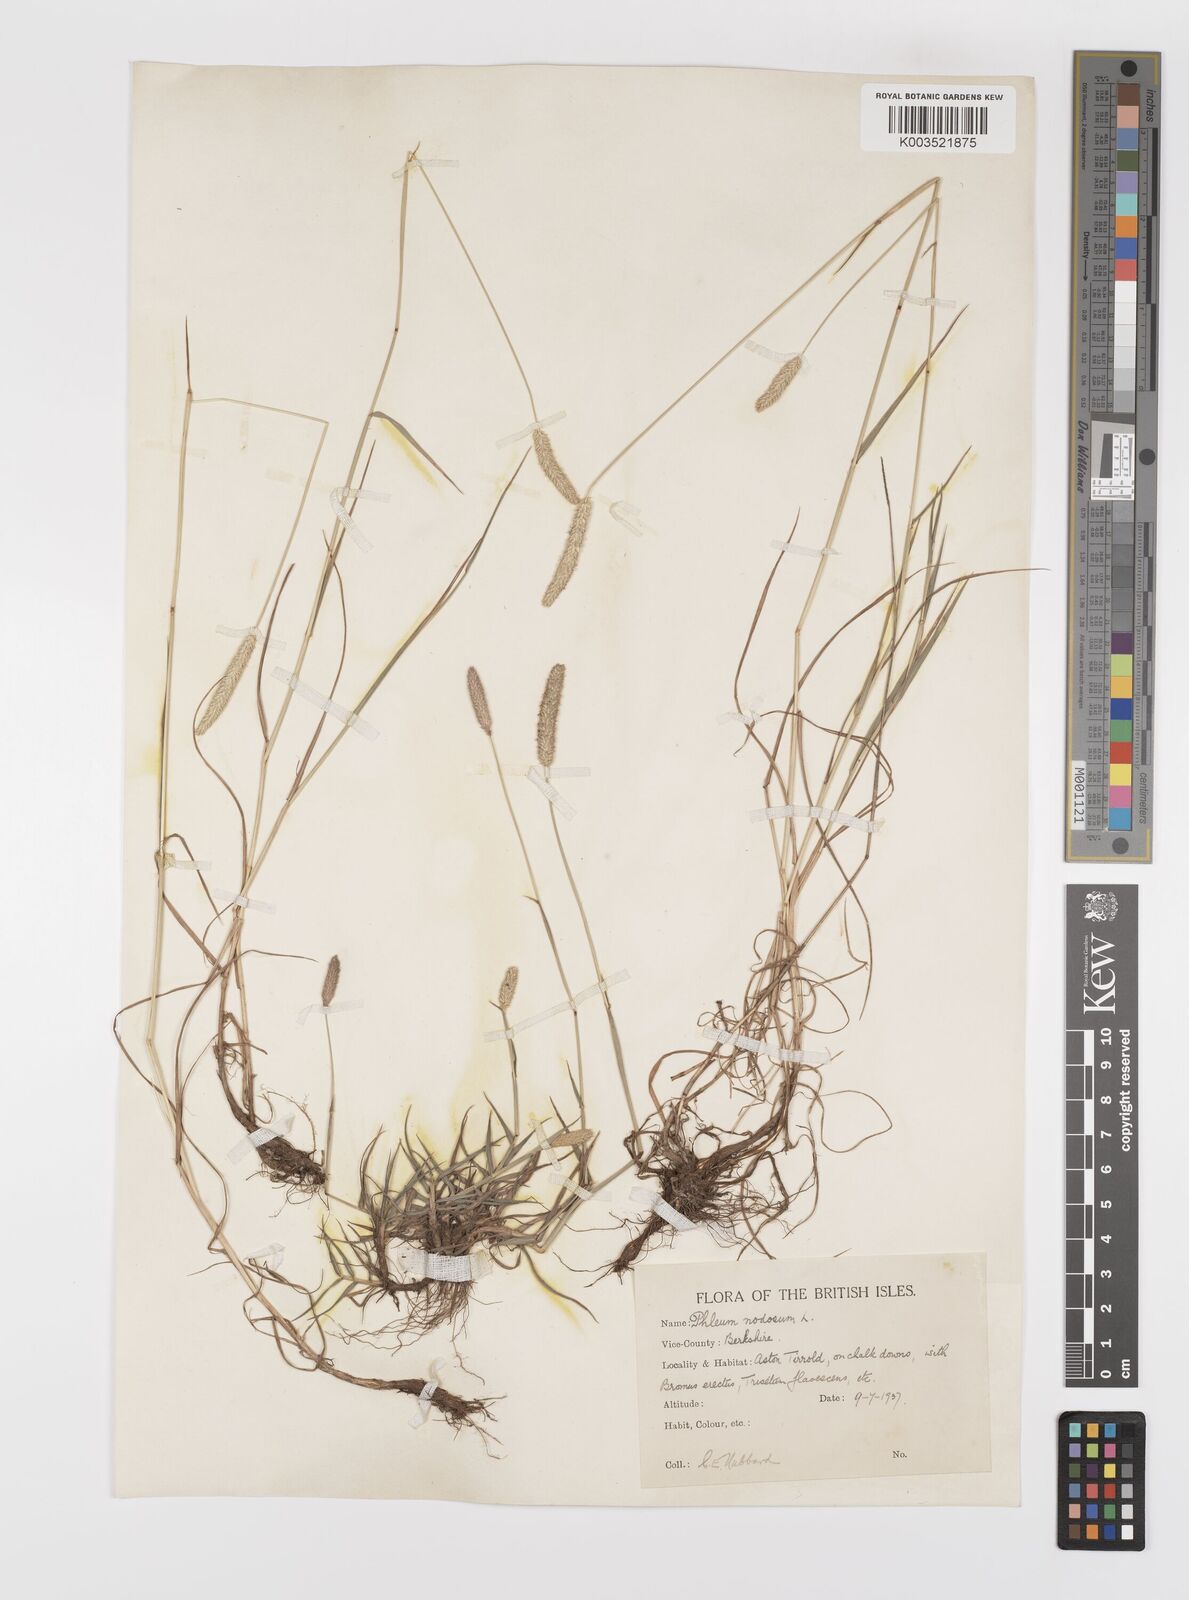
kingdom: Plantae
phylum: Tracheophyta
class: Liliopsida
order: Poales
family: Poaceae
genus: Phleum
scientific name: Phleum bertolonii
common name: Smaller cat's-tail
